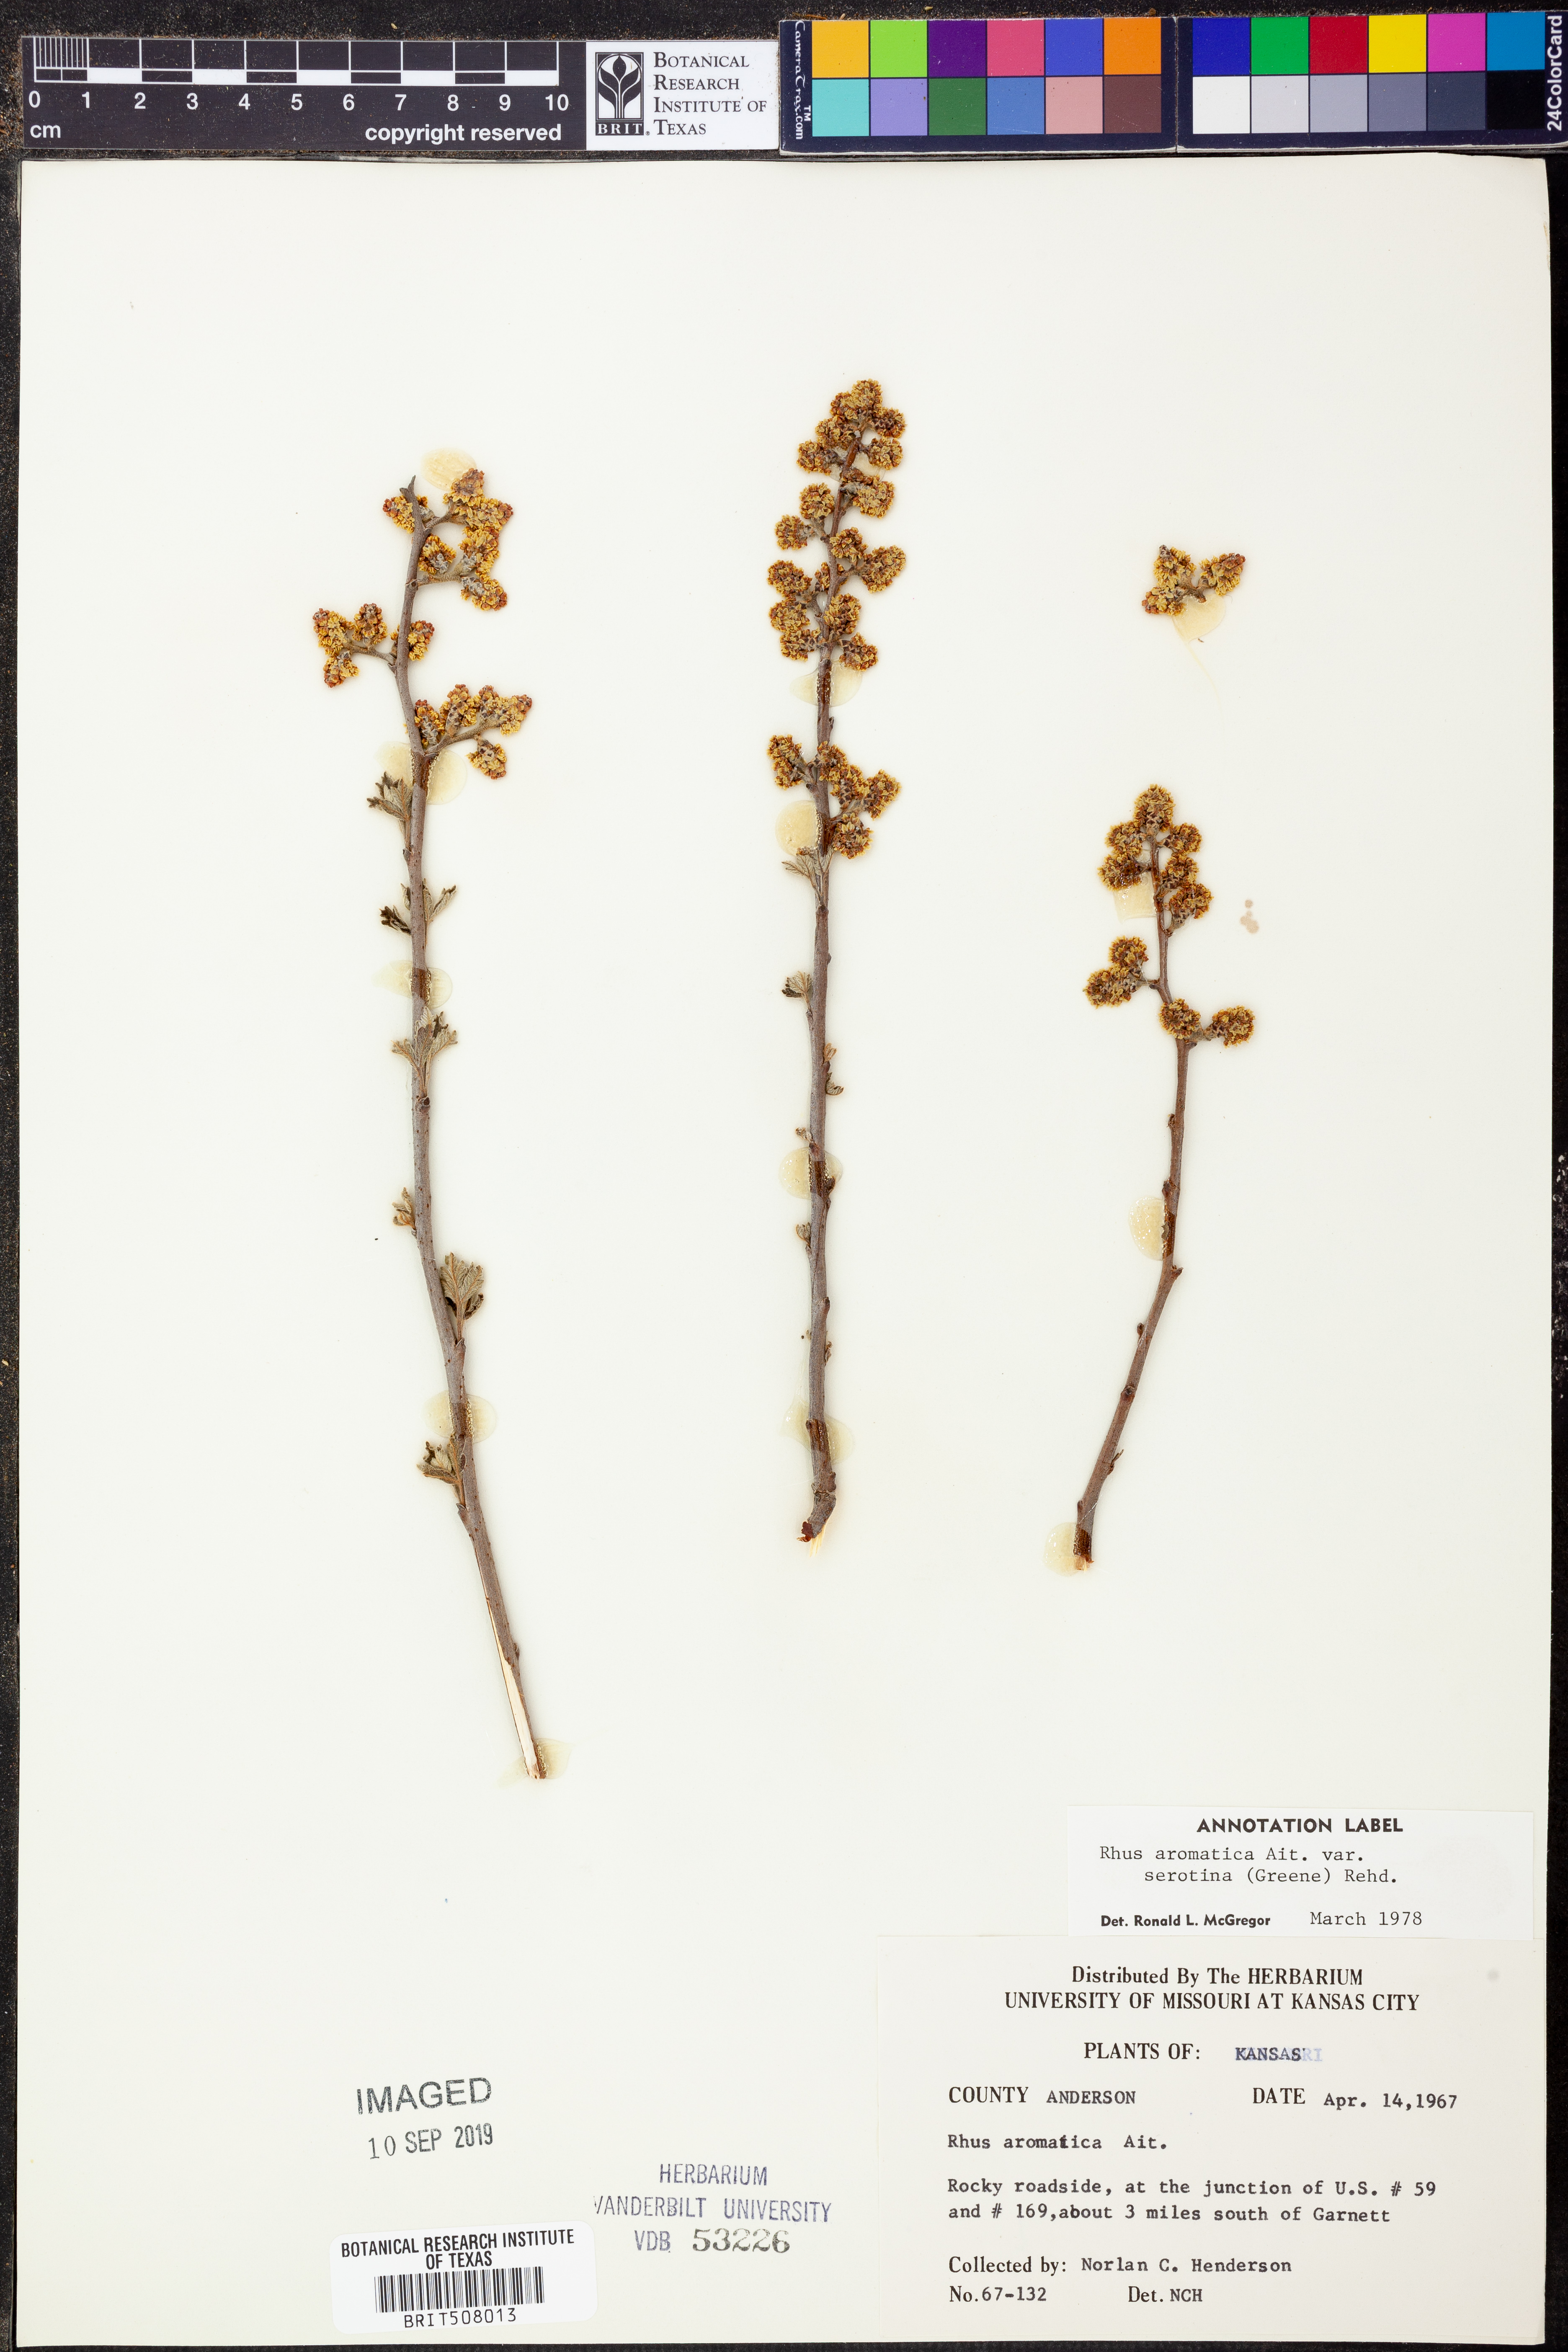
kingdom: Plantae
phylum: Tracheophyta
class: Magnoliopsida
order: Sapindales
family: Anacardiaceae
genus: Rhus
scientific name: Rhus aromatica
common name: Aromatic sumac
